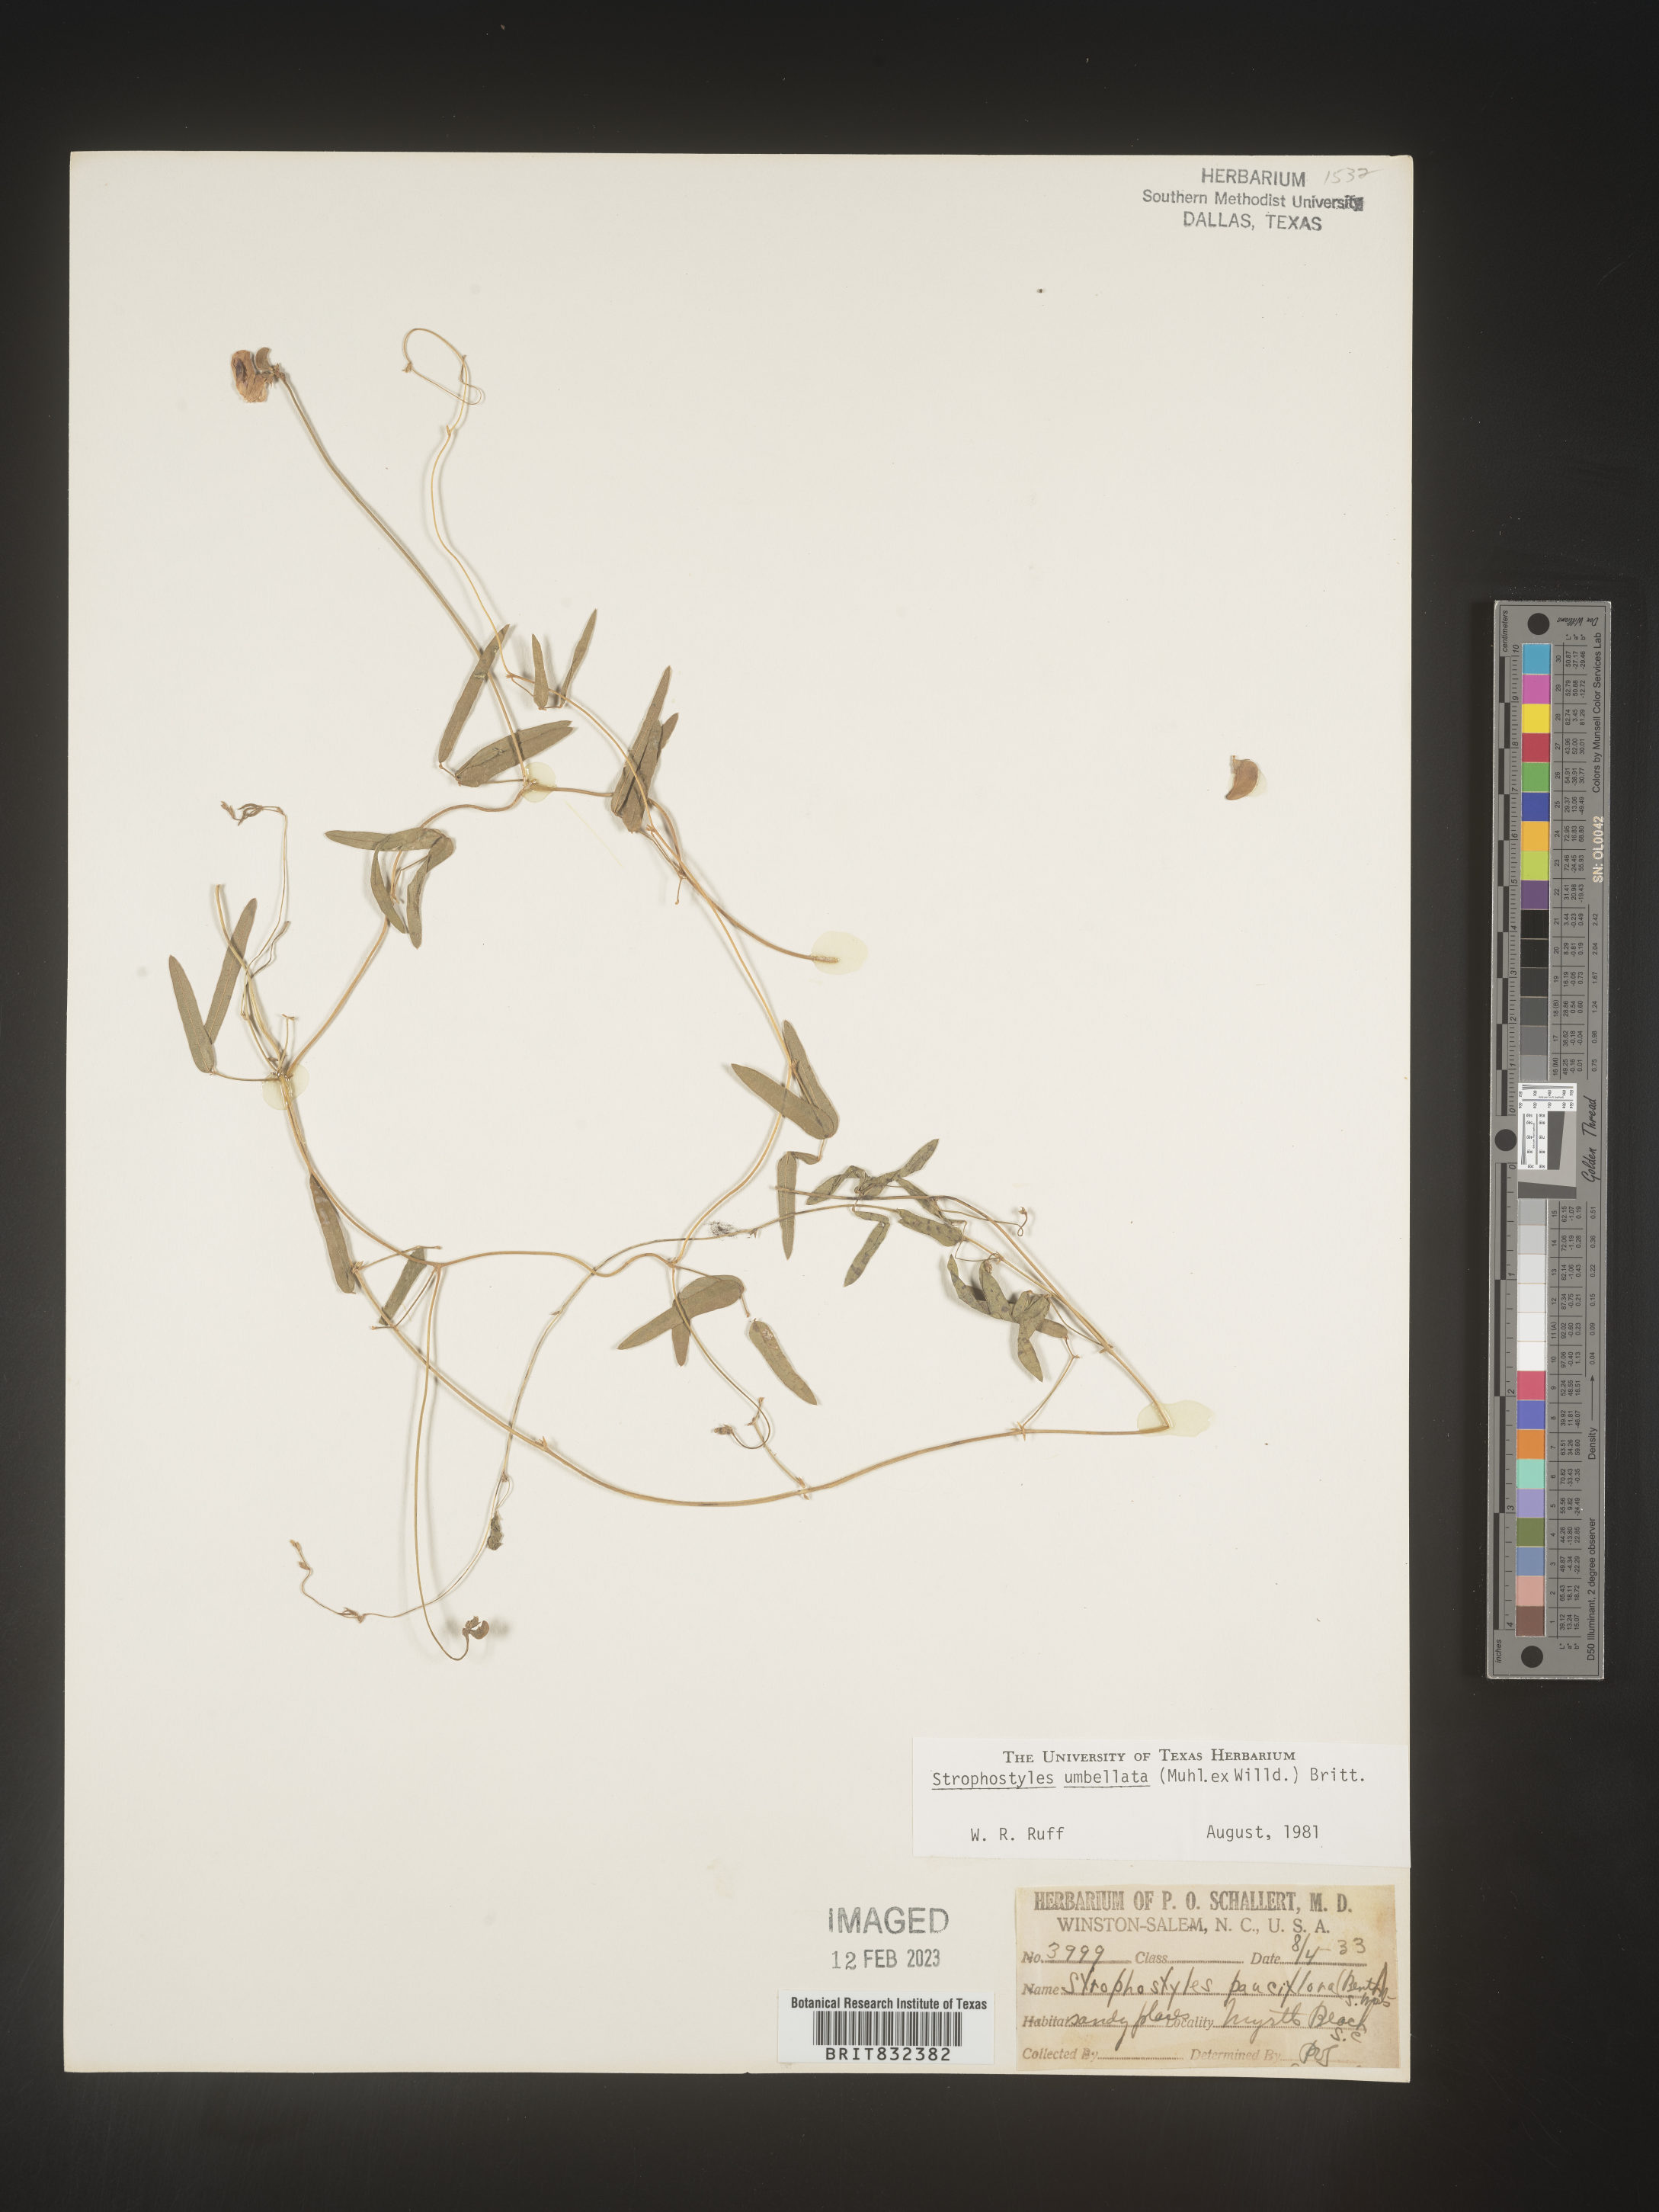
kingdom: Plantae
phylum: Tracheophyta
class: Magnoliopsida
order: Fabales
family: Fabaceae
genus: Strophostyles
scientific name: Strophostyles umbellata
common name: Perennial wild bean
